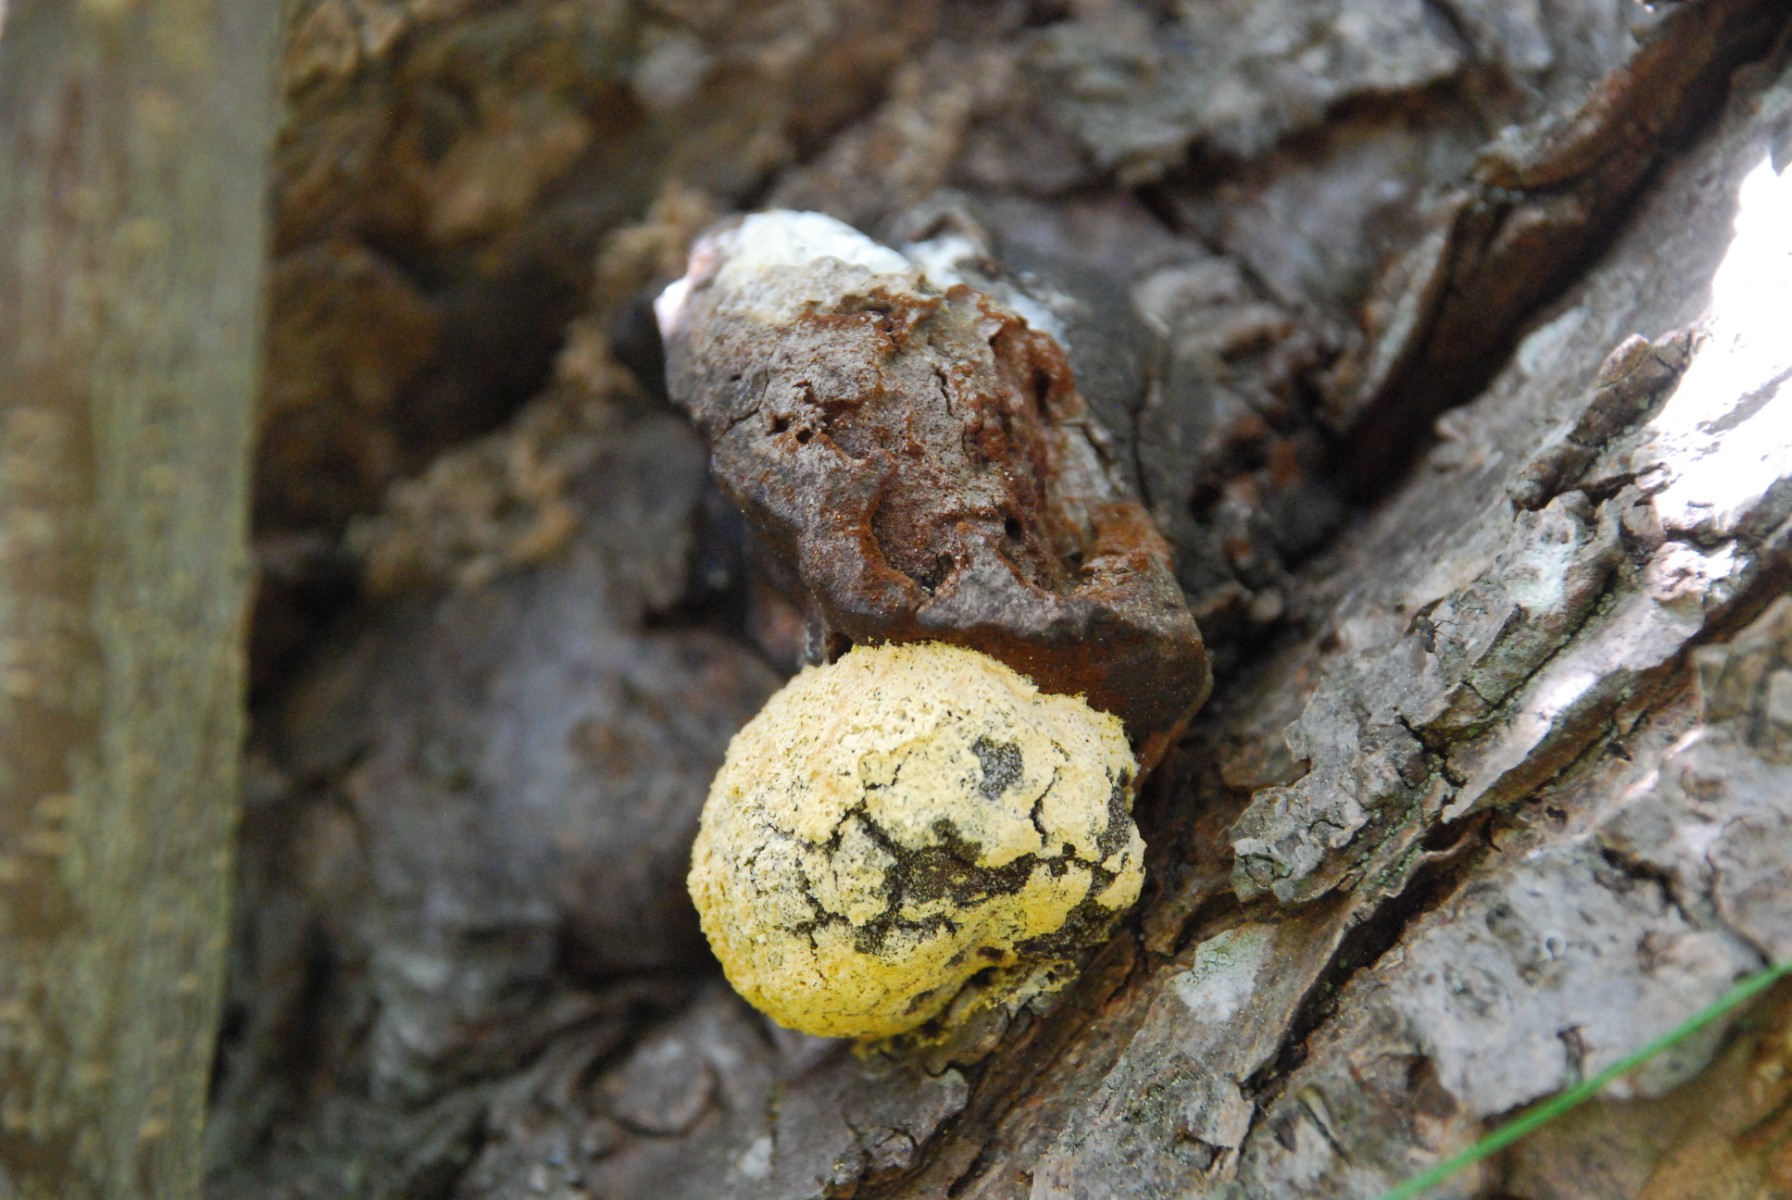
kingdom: Protozoa
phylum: Mycetozoa
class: Myxomycetes
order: Physarales
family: Physaraceae
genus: Fuligo
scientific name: Fuligo septica
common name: gul troldsmør
